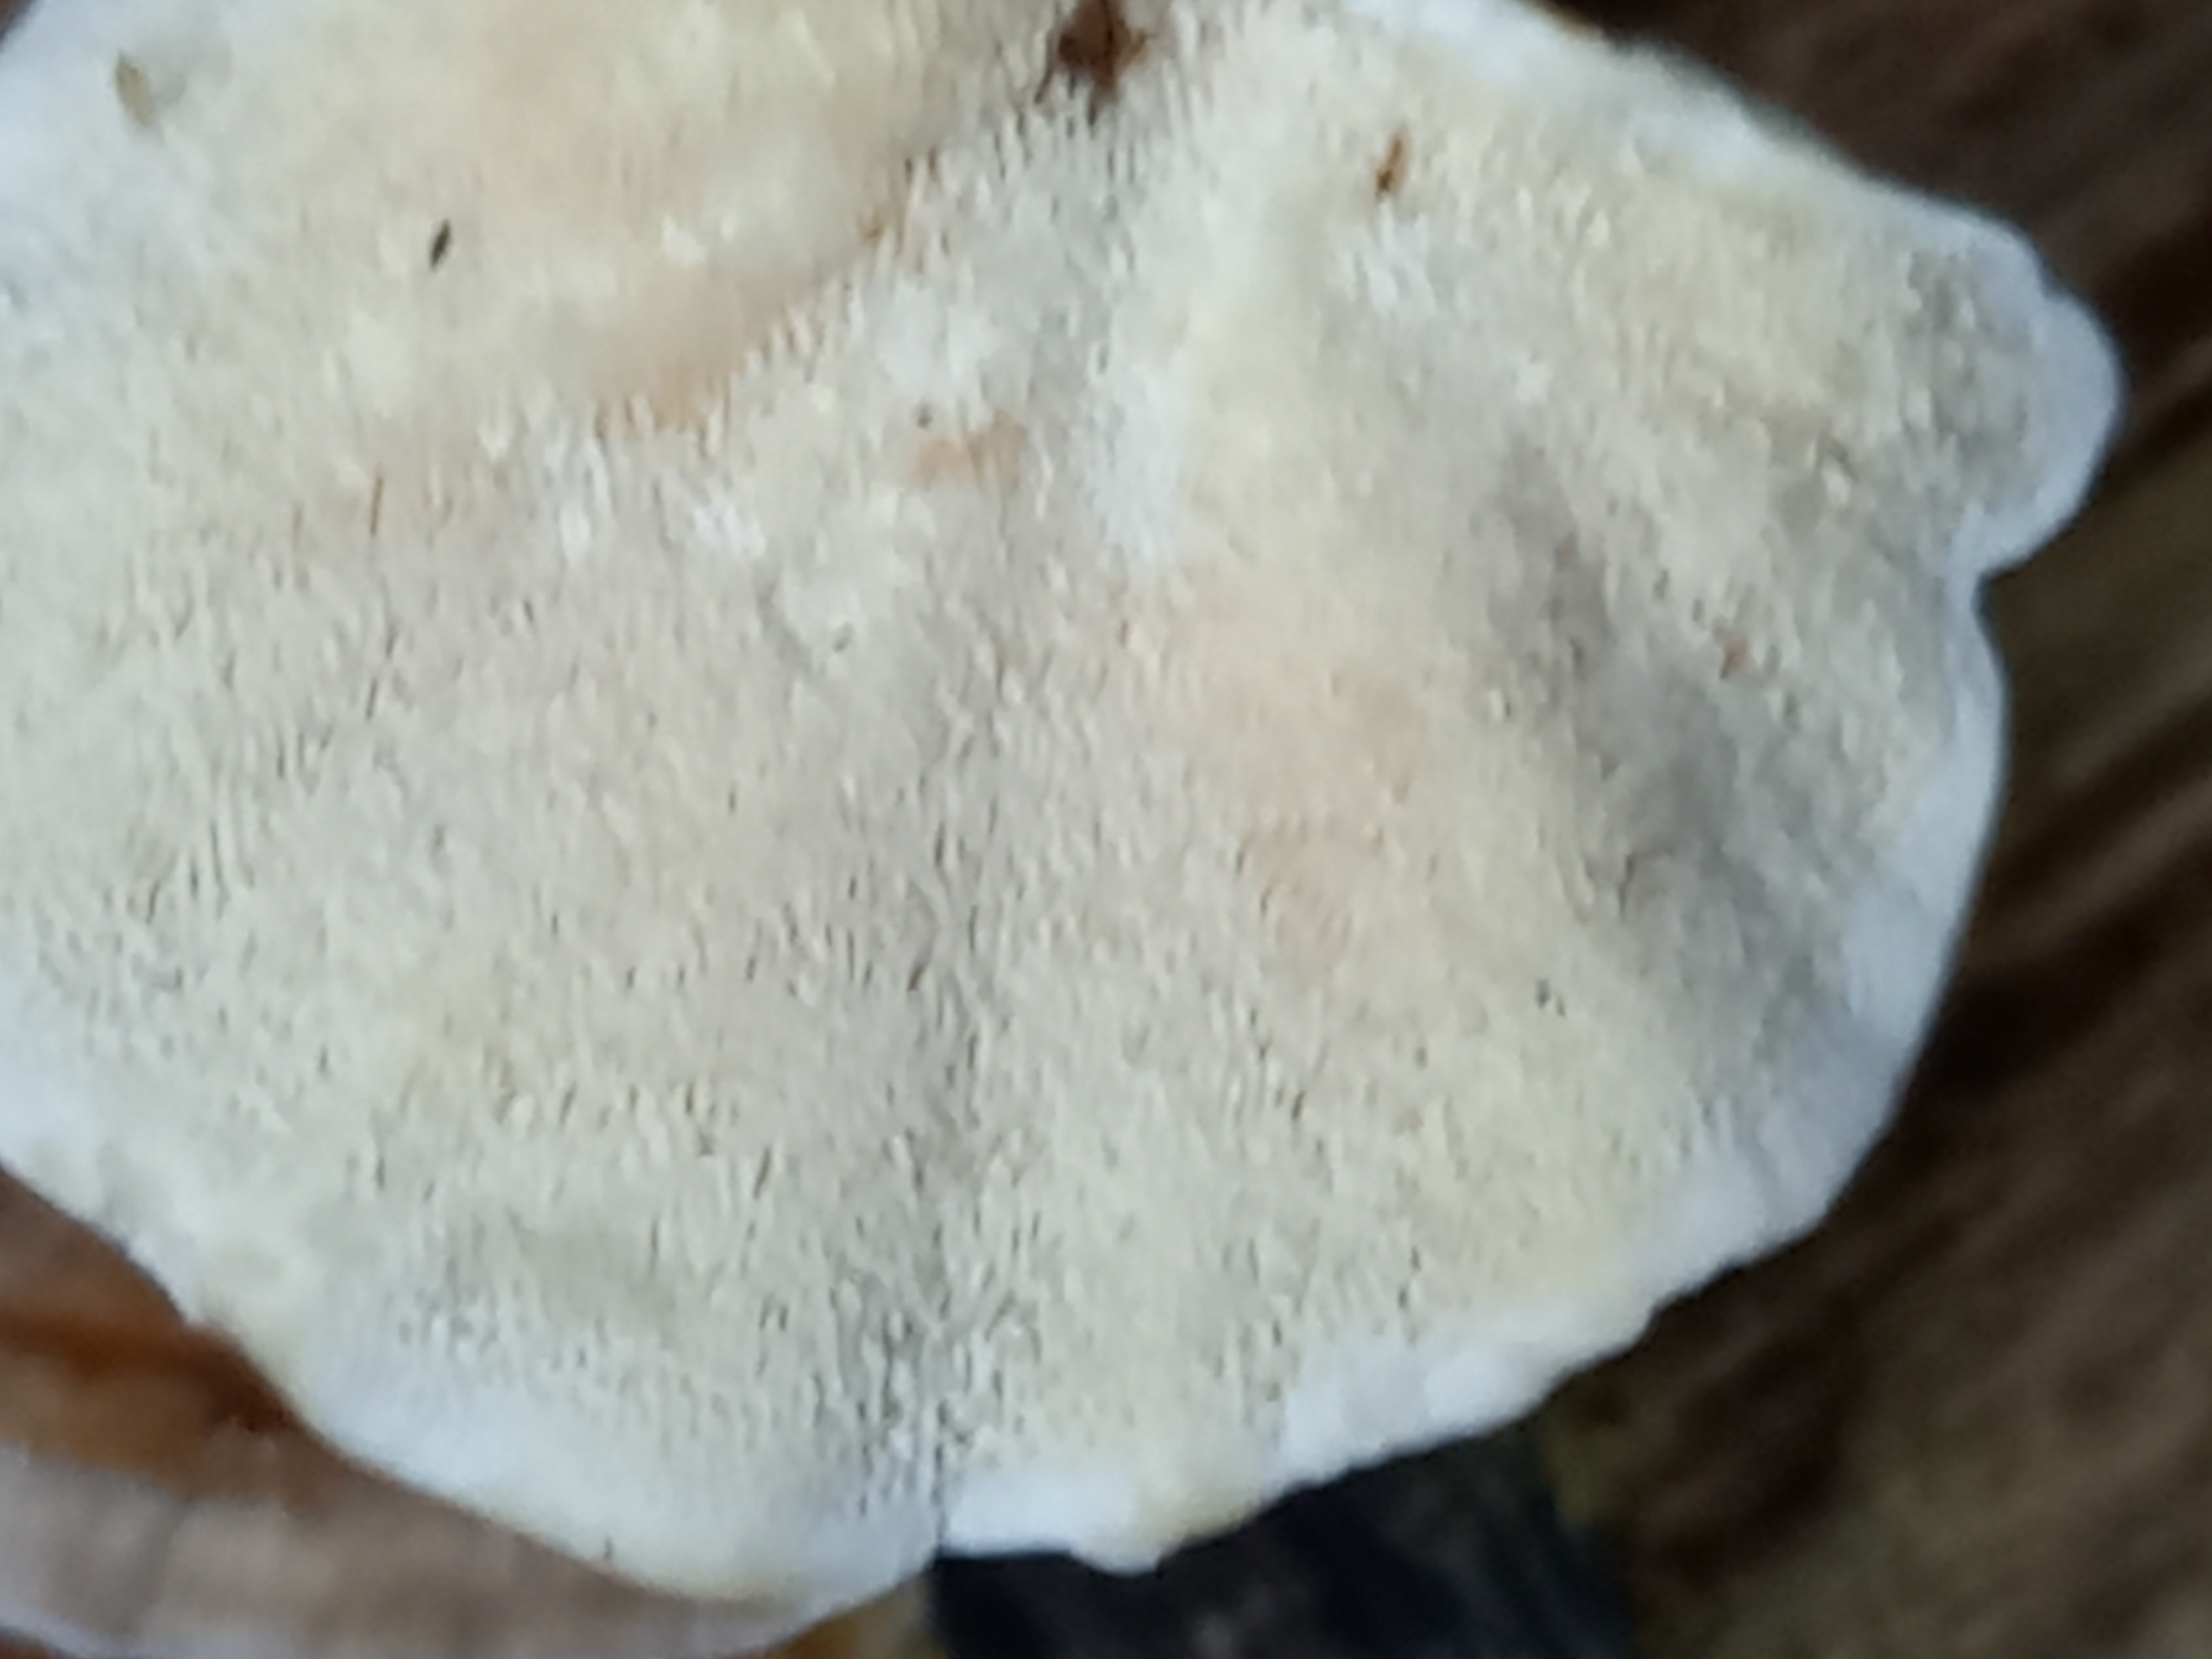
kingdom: Fungi
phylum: Basidiomycota
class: Agaricomycetes
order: Polyporales
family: Polyporaceae
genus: Trametes
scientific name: Trametes versicolor
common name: broget læderporesvamp
